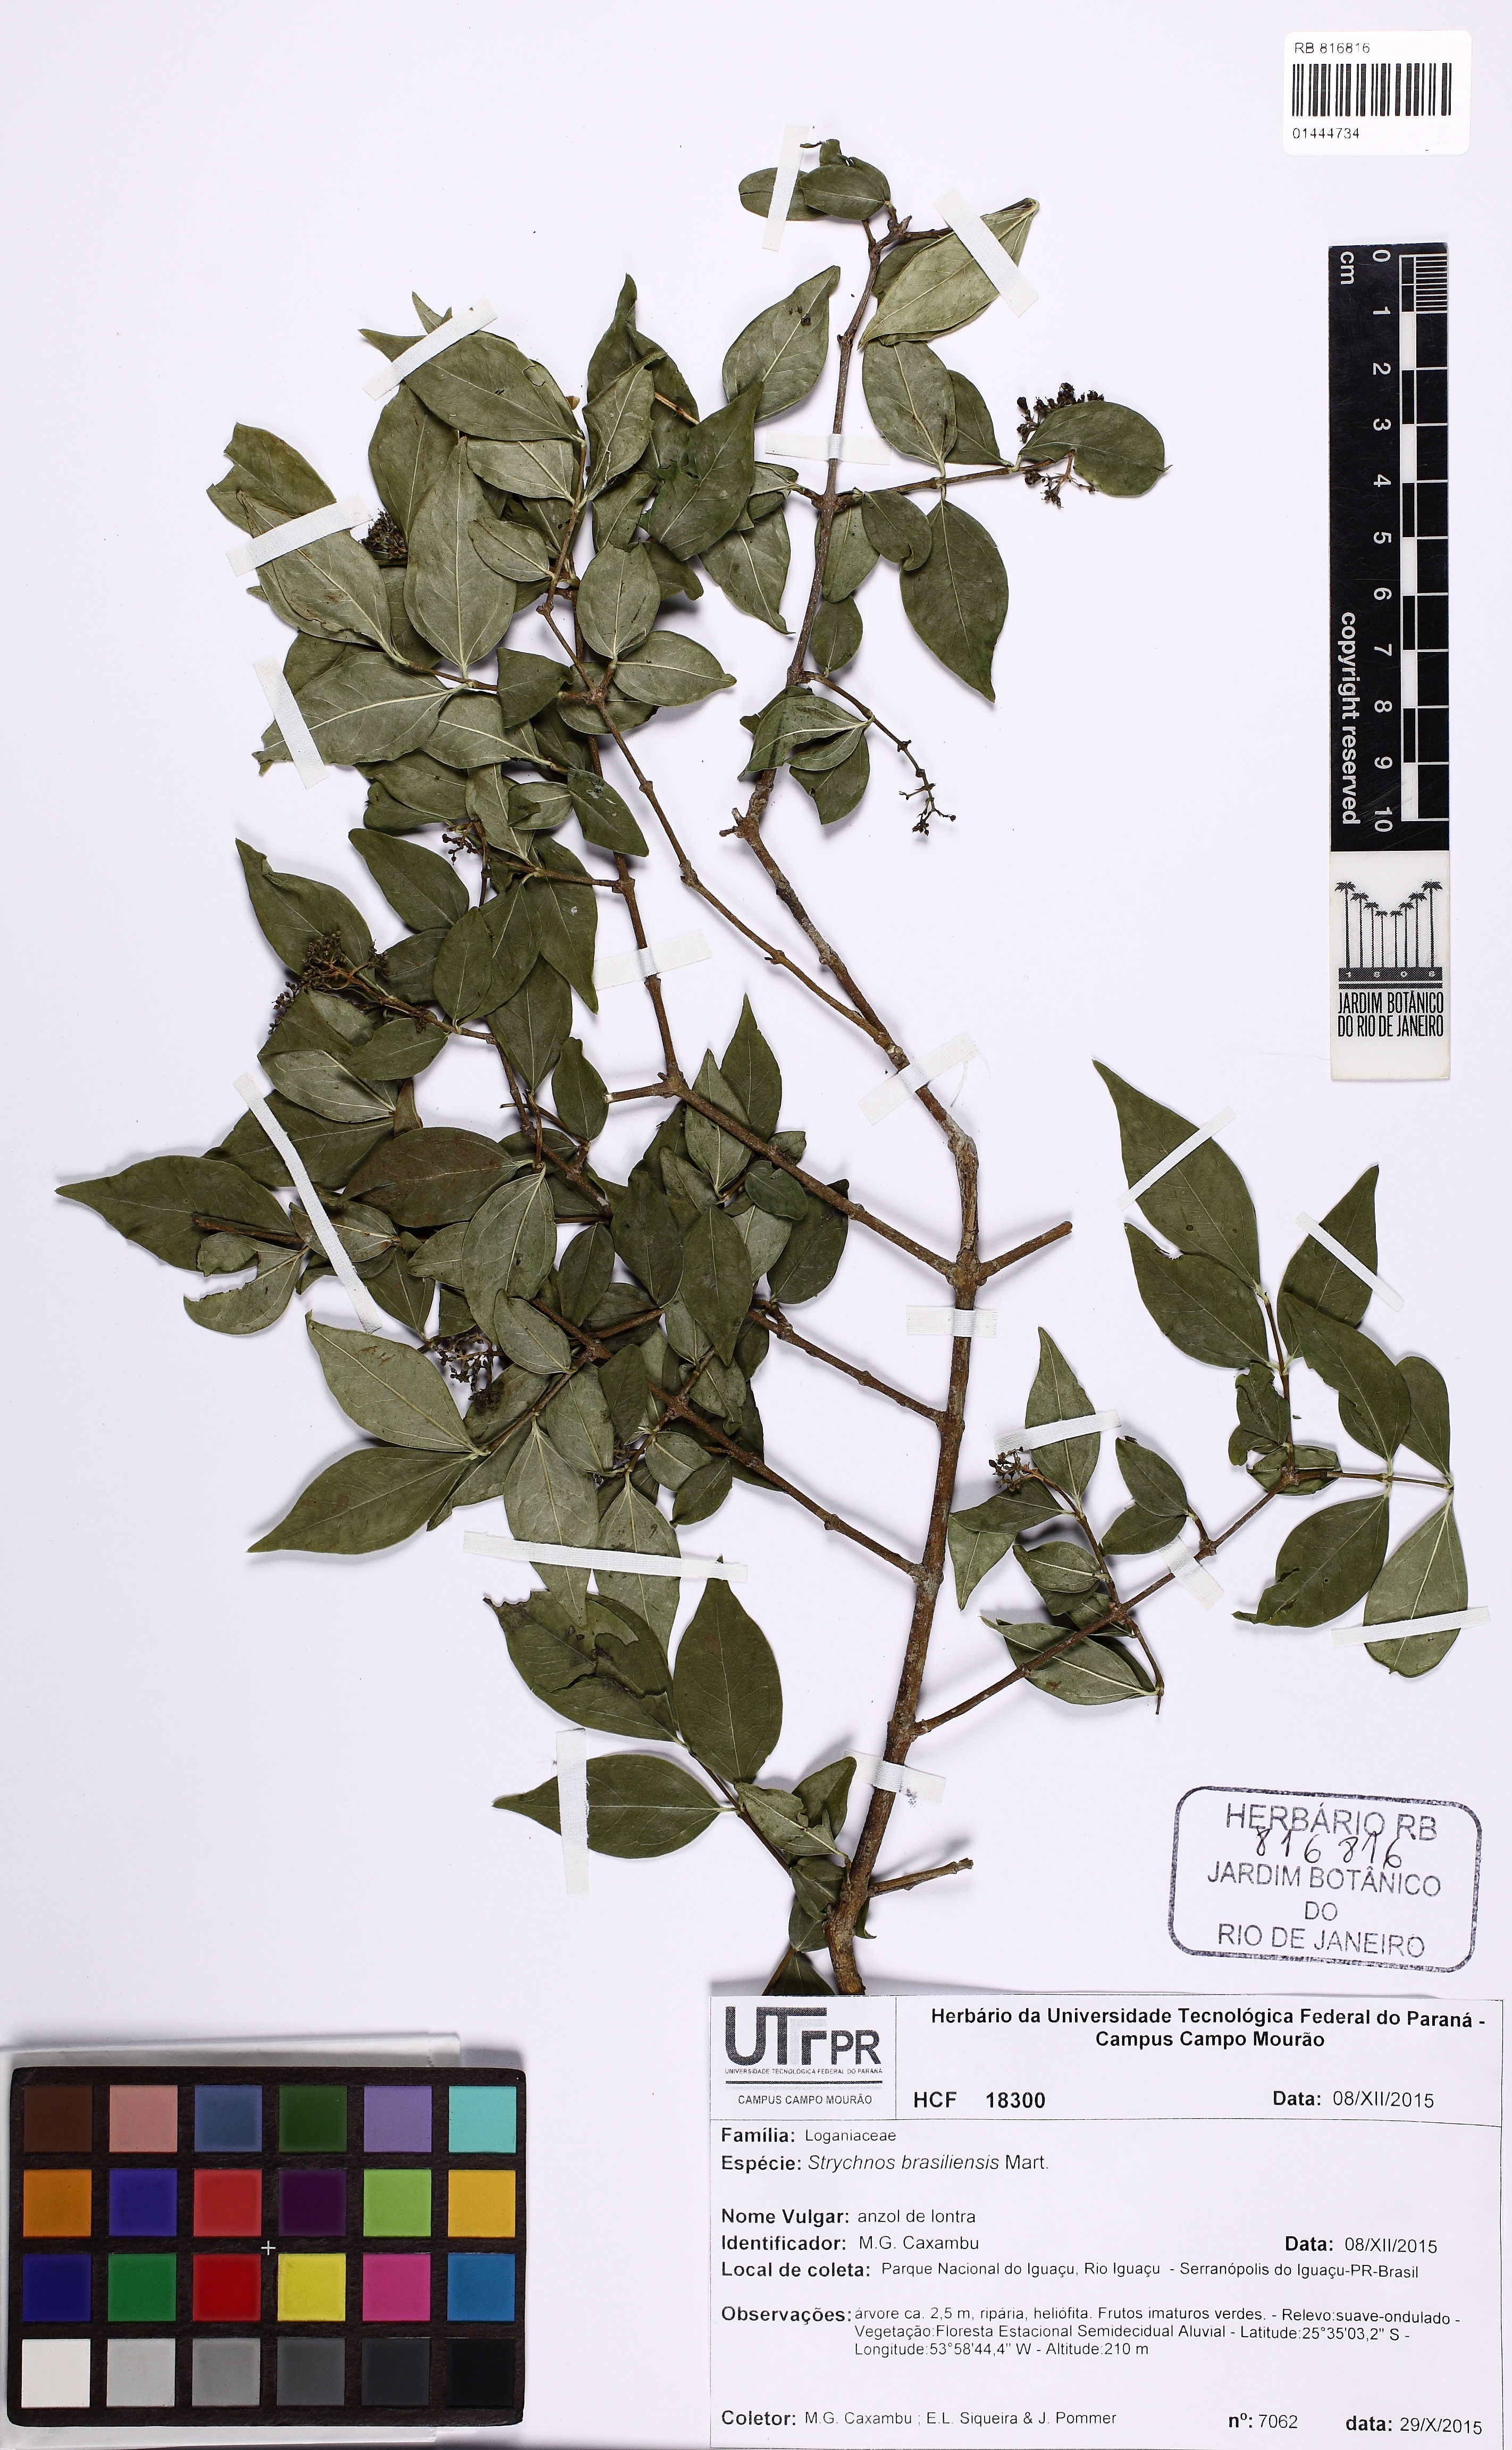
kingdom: Plantae
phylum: Tracheophyta
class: Magnoliopsida
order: Gentianales
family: Loganiaceae
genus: Strychnos
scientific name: Strychnos brasiliensis
